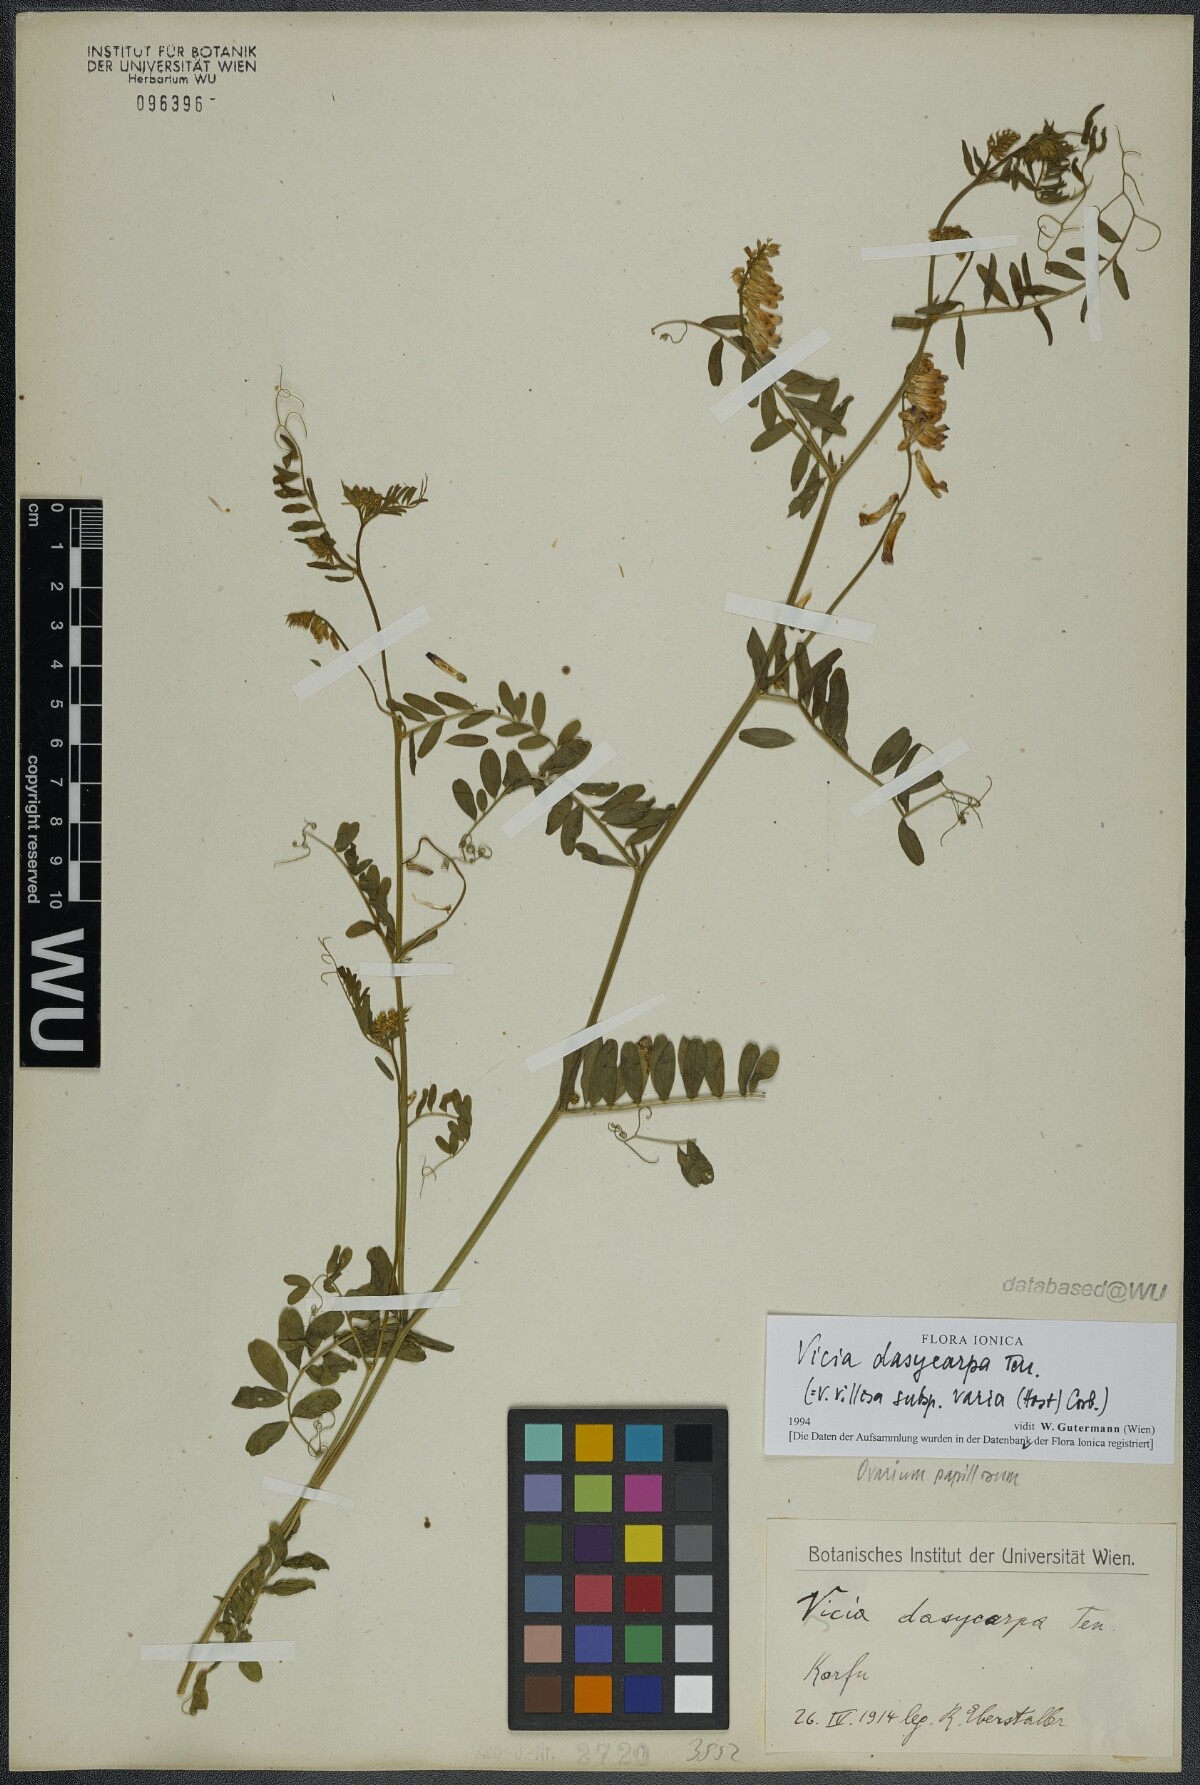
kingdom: Plantae
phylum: Tracheophyta
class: Magnoliopsida
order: Fabales
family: Fabaceae
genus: Vicia
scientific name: Vicia villosa
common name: Fodder vetch
